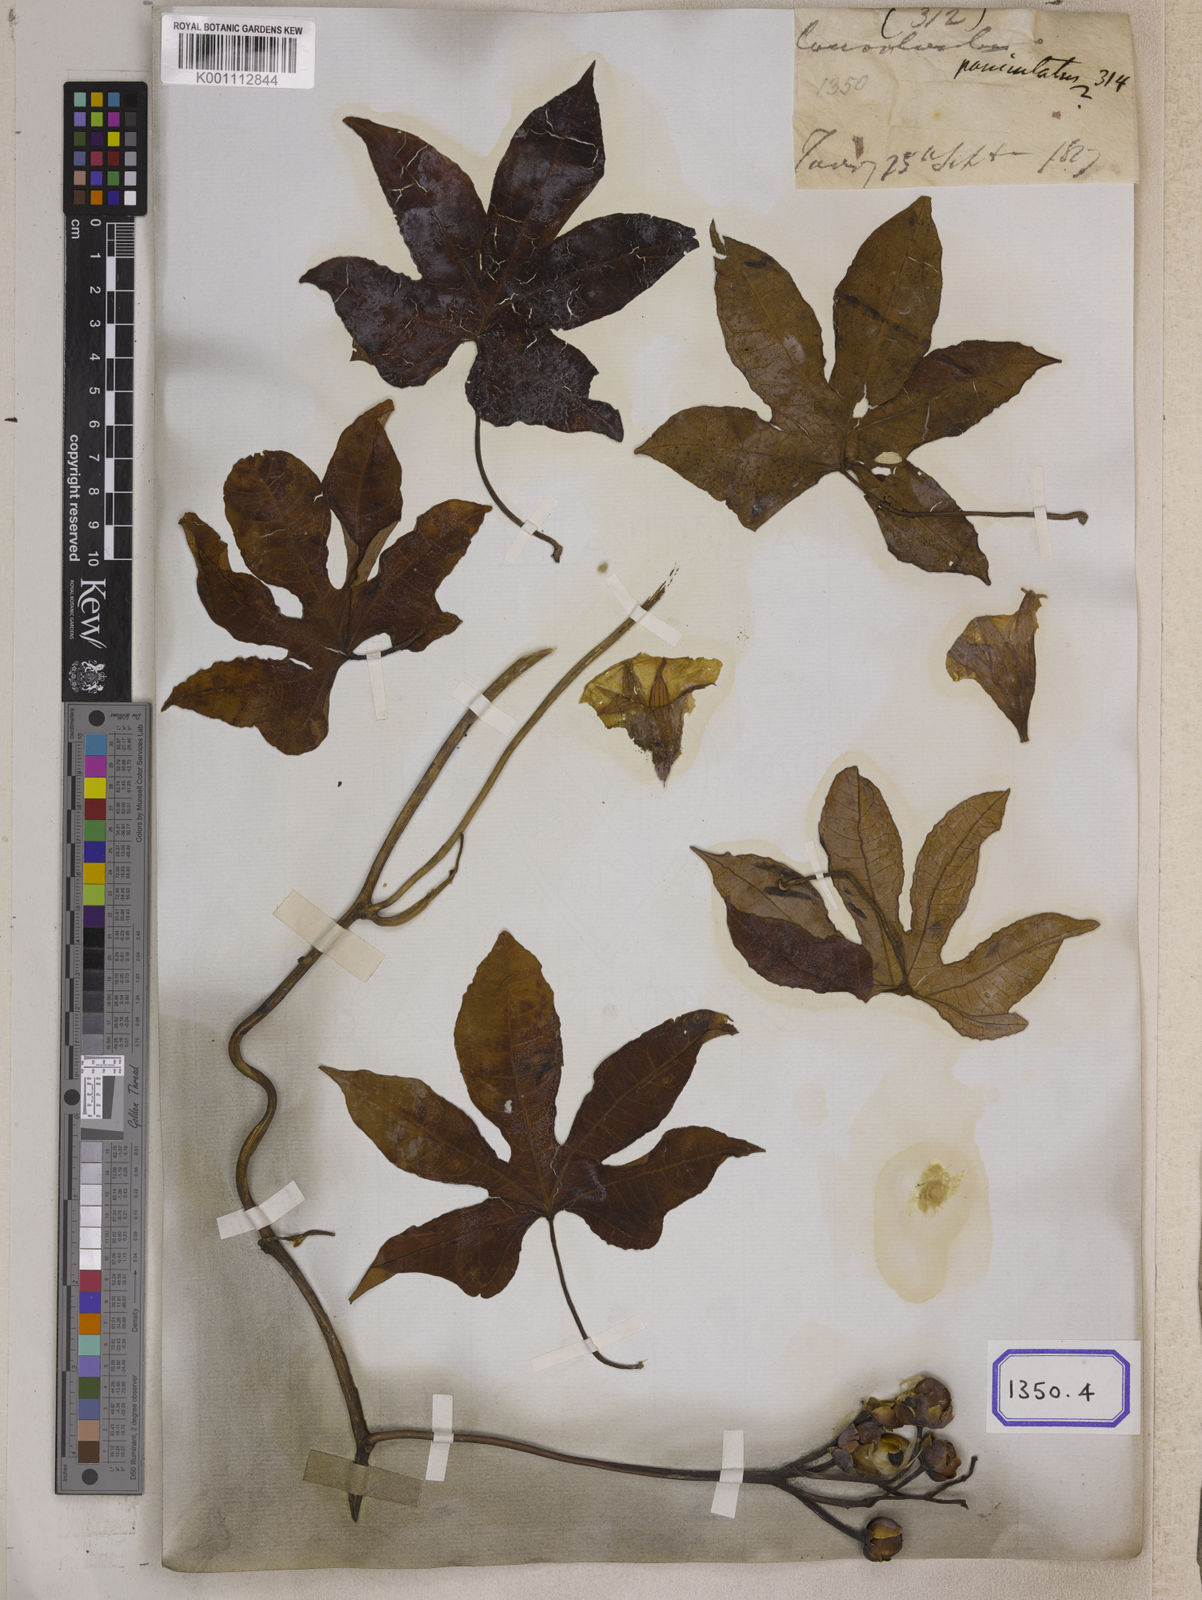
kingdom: Plantae
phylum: Tracheophyta
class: Magnoliopsida
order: Solanales
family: Convolvulaceae
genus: Ipomoea
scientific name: Ipomoea mauritiana
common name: Mauritanian convolvulus
